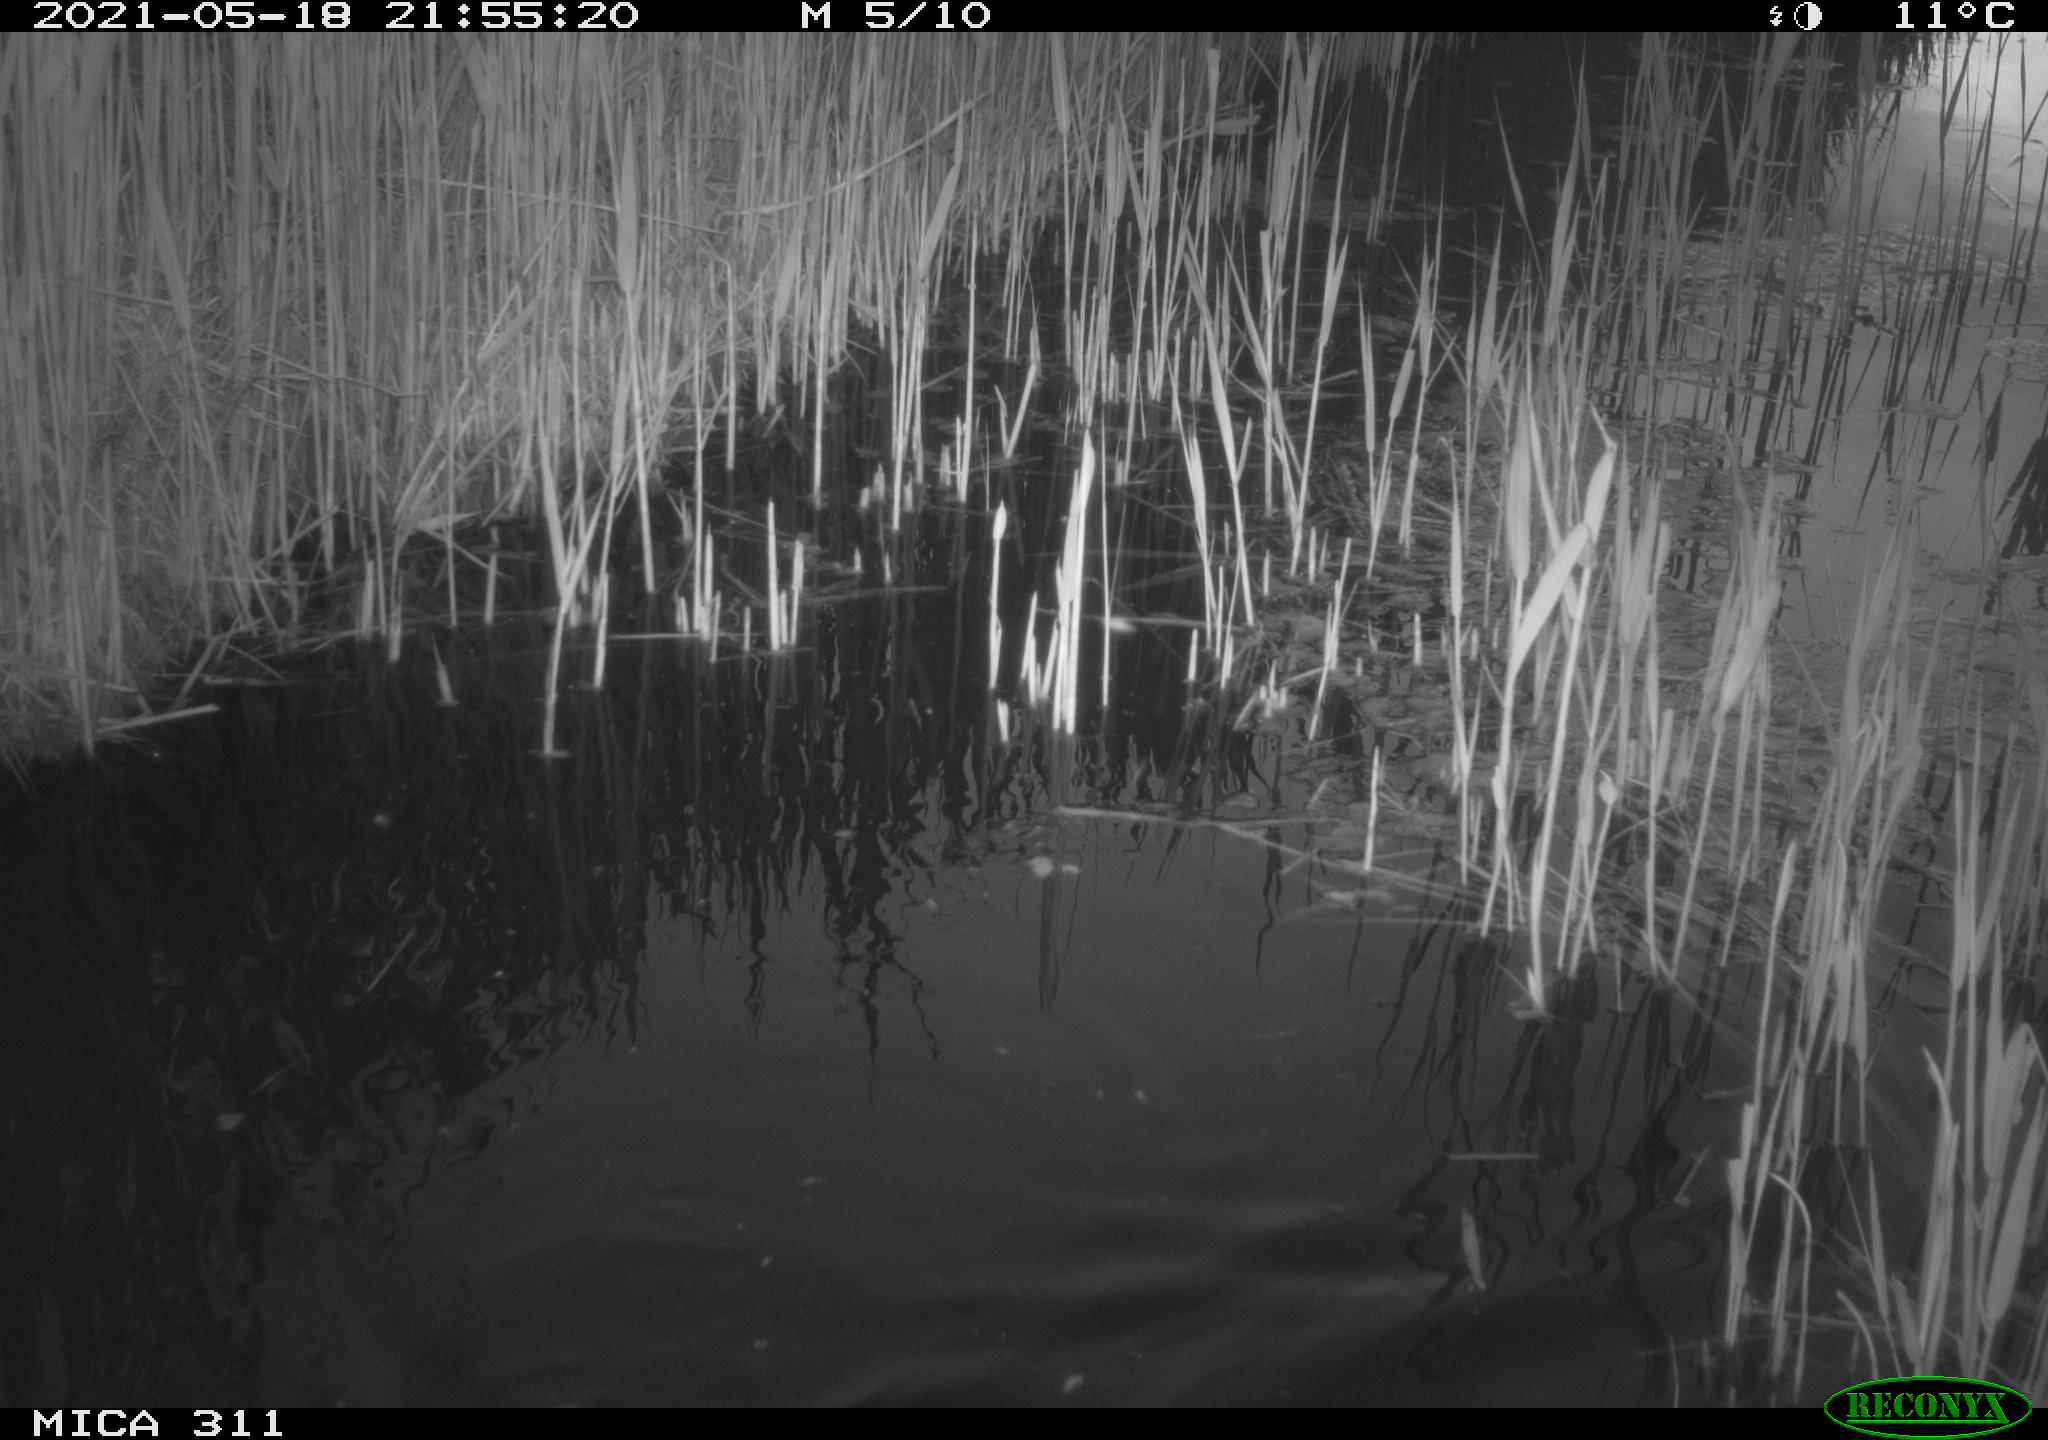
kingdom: Animalia
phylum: Chordata
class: Aves
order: Gruiformes
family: Rallidae
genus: Gallinula
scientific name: Gallinula chloropus
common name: Common moorhen
